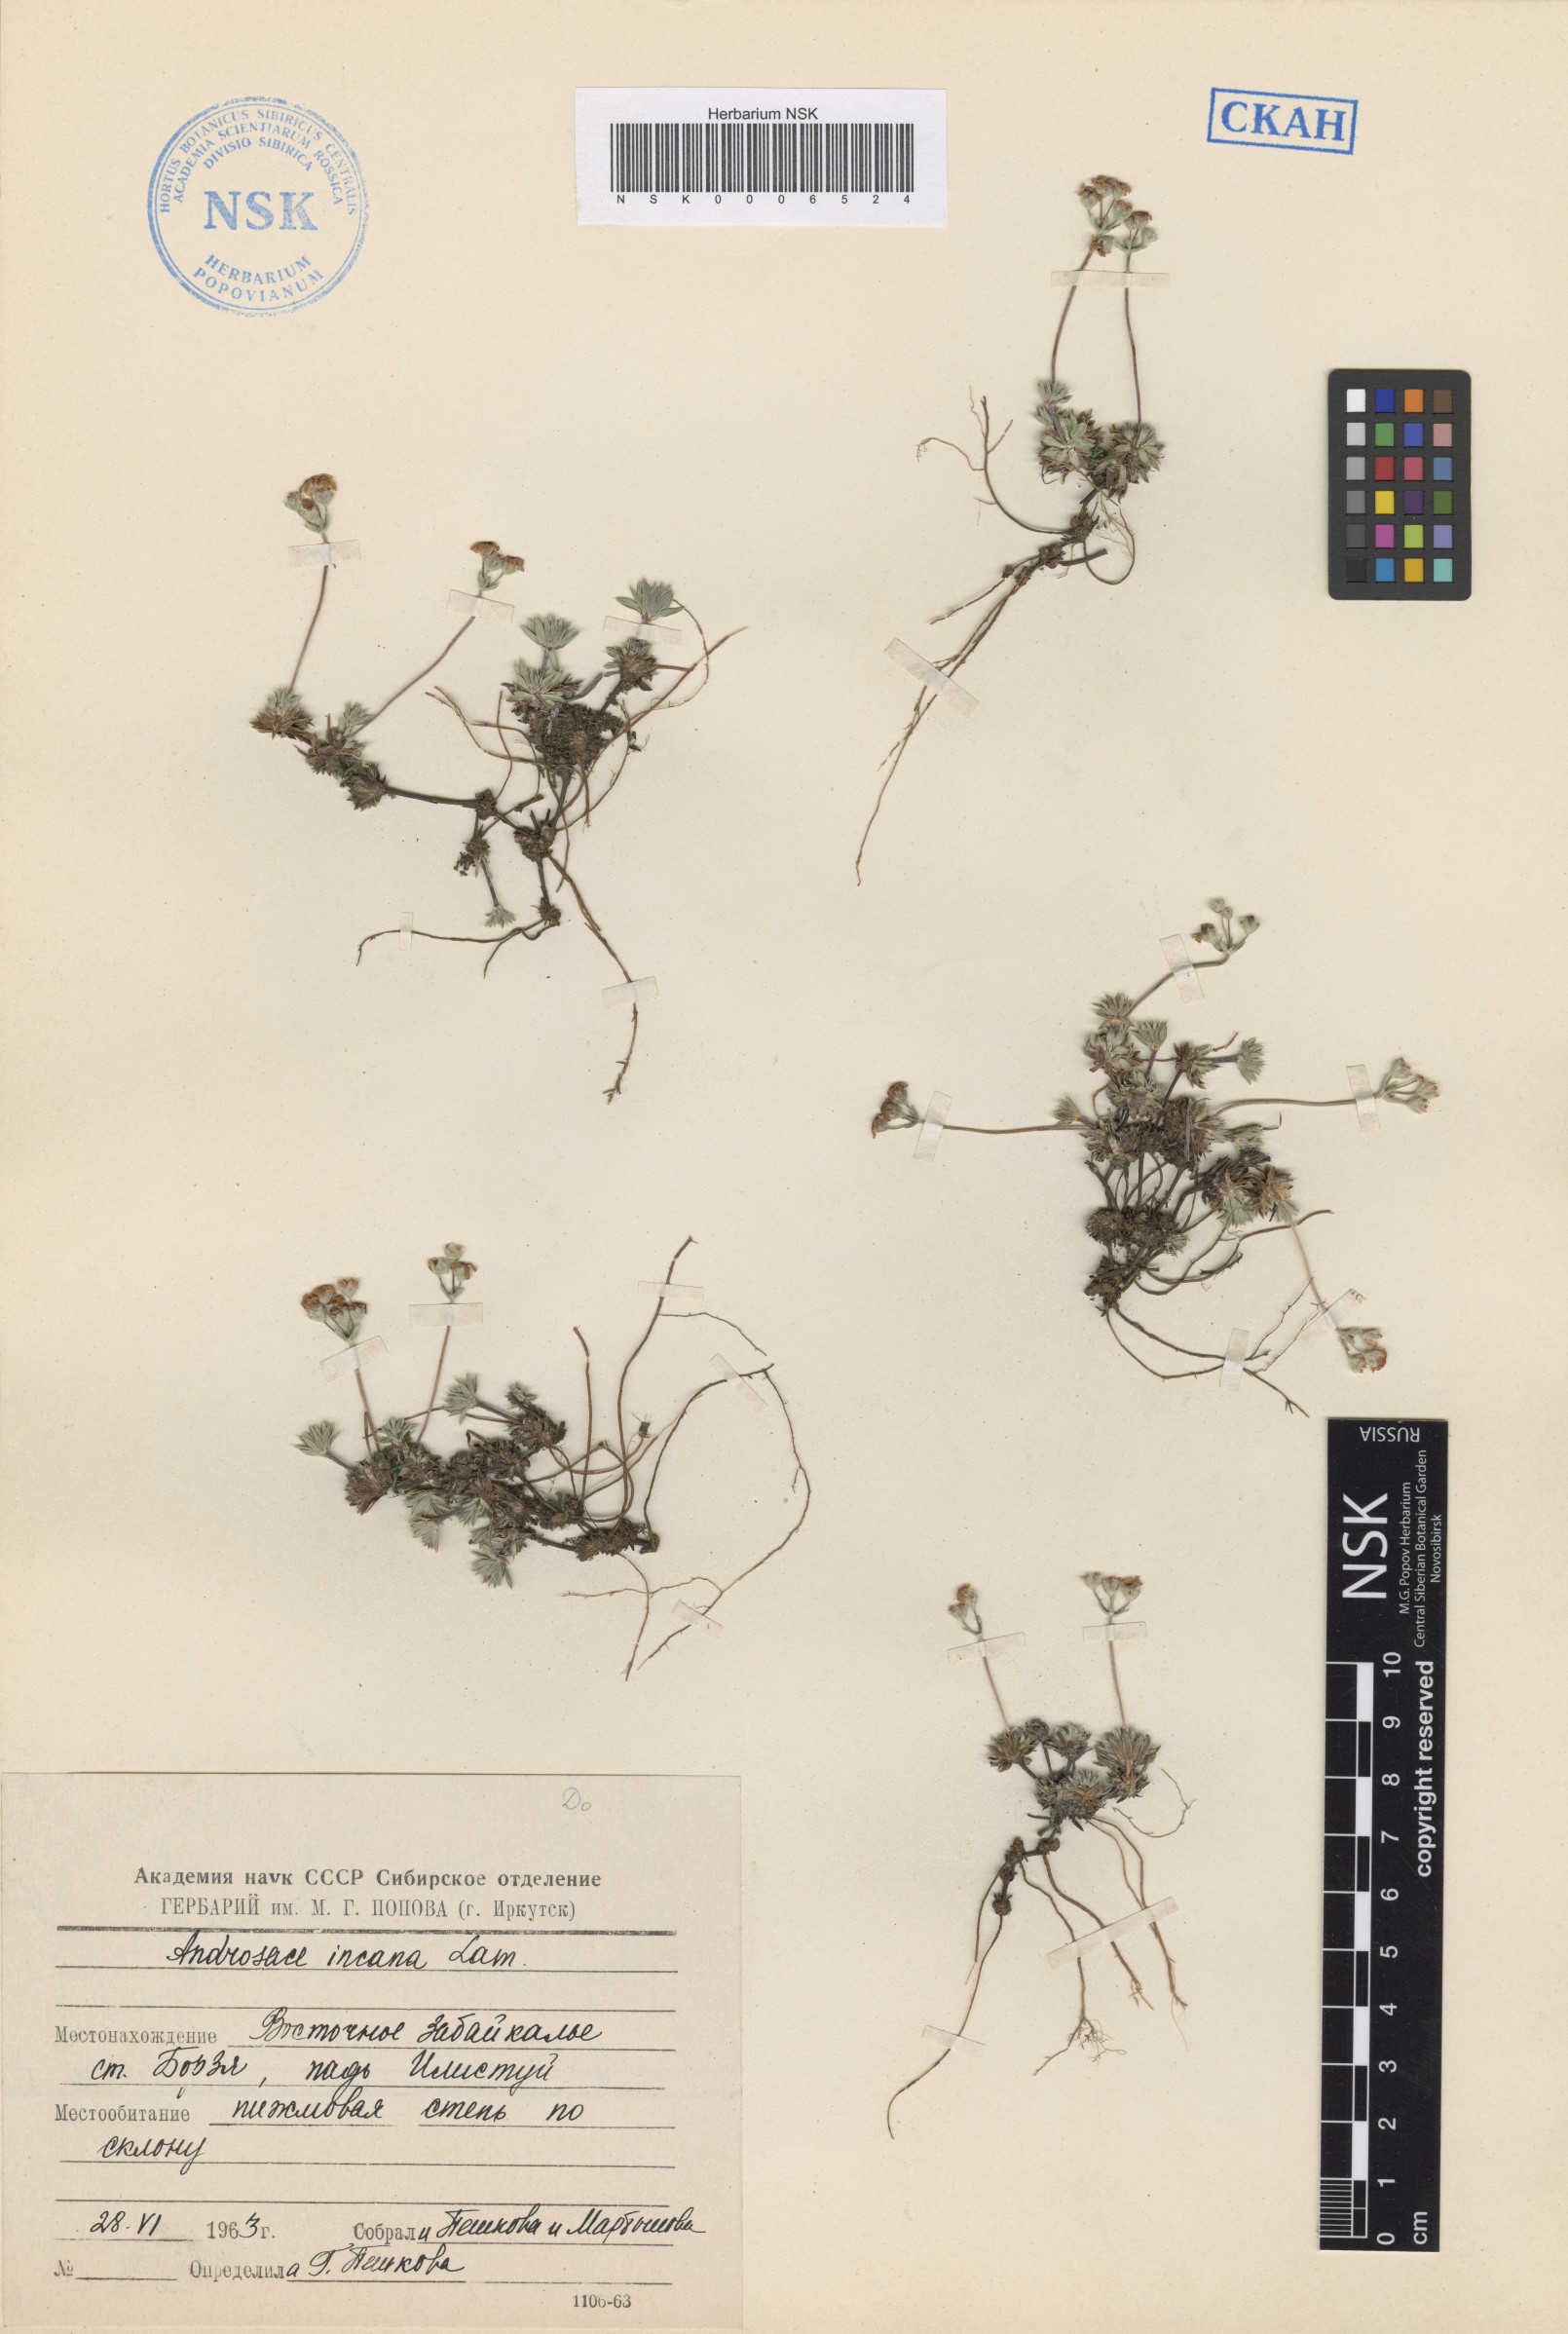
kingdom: Plantae
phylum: Tracheophyta
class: Magnoliopsida
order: Ericales
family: Primulaceae
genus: Androsace
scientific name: Androsace incana
